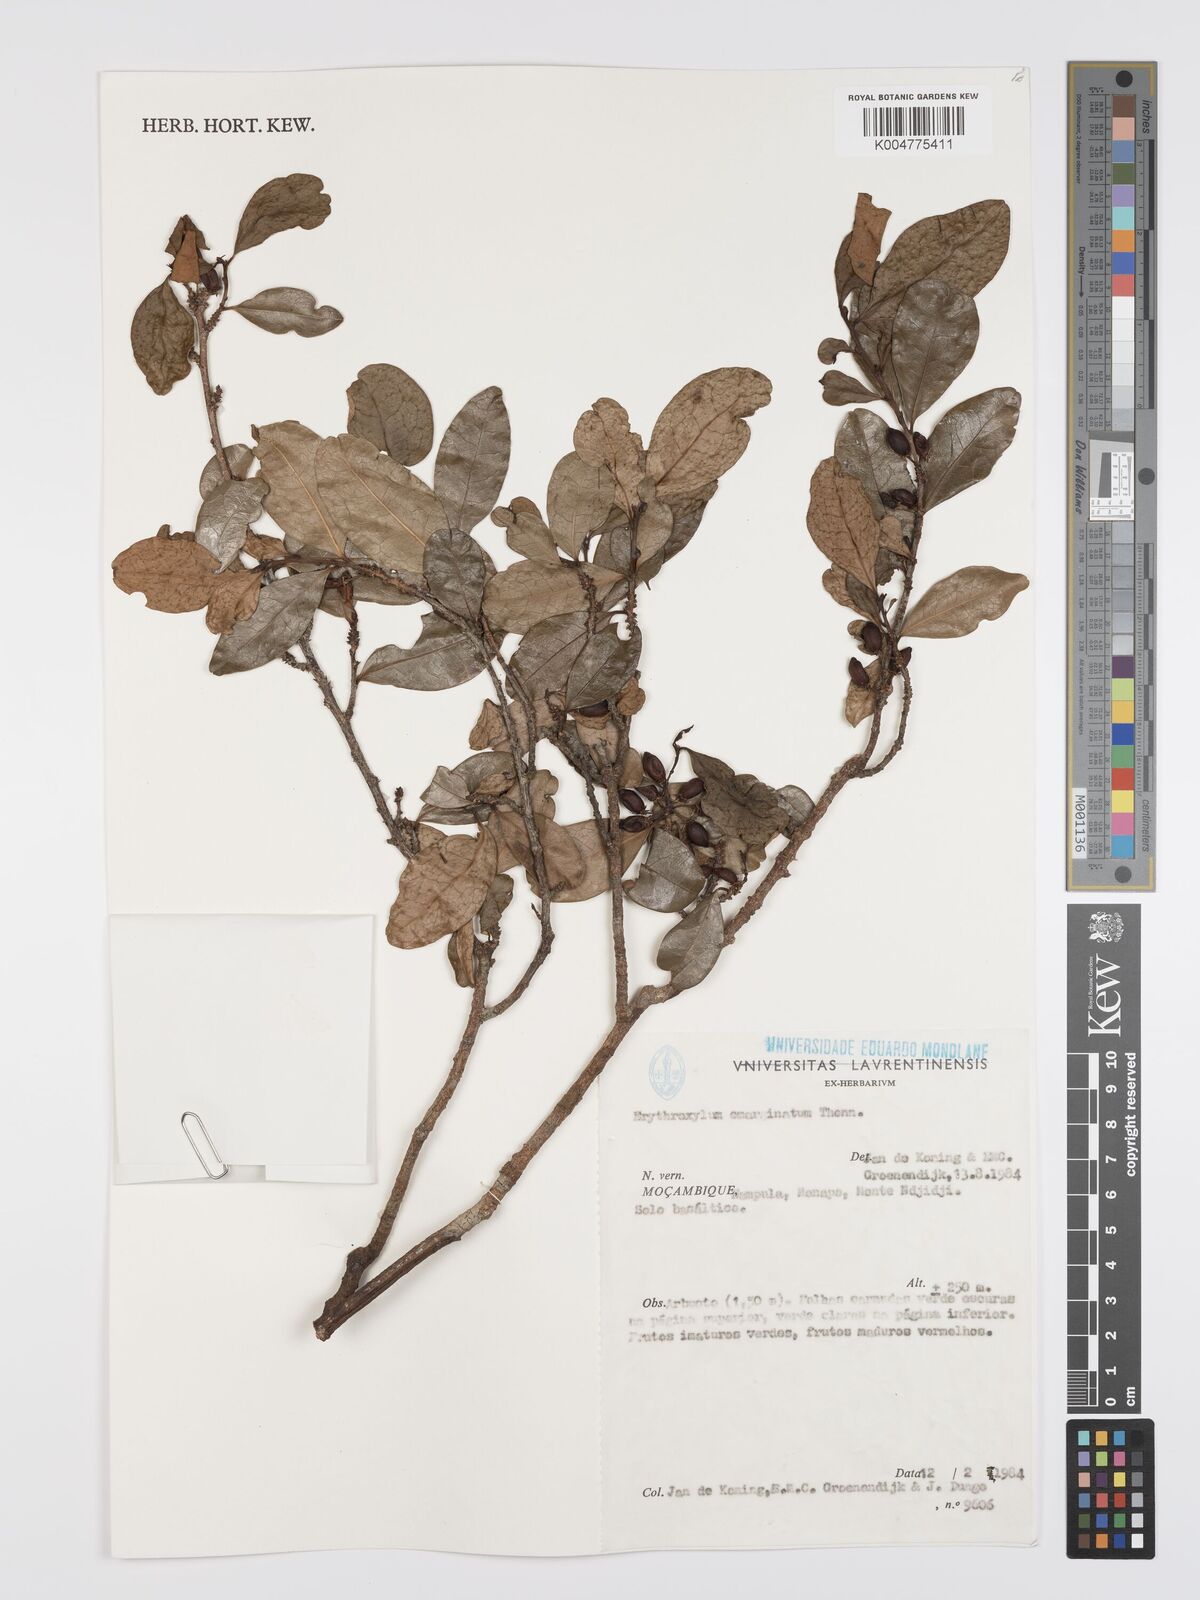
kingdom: Plantae
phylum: Tracheophyta
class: Magnoliopsida
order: Malpighiales
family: Erythroxylaceae
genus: Erythroxylum
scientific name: Erythroxylum emarginatum
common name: African coca-tree
